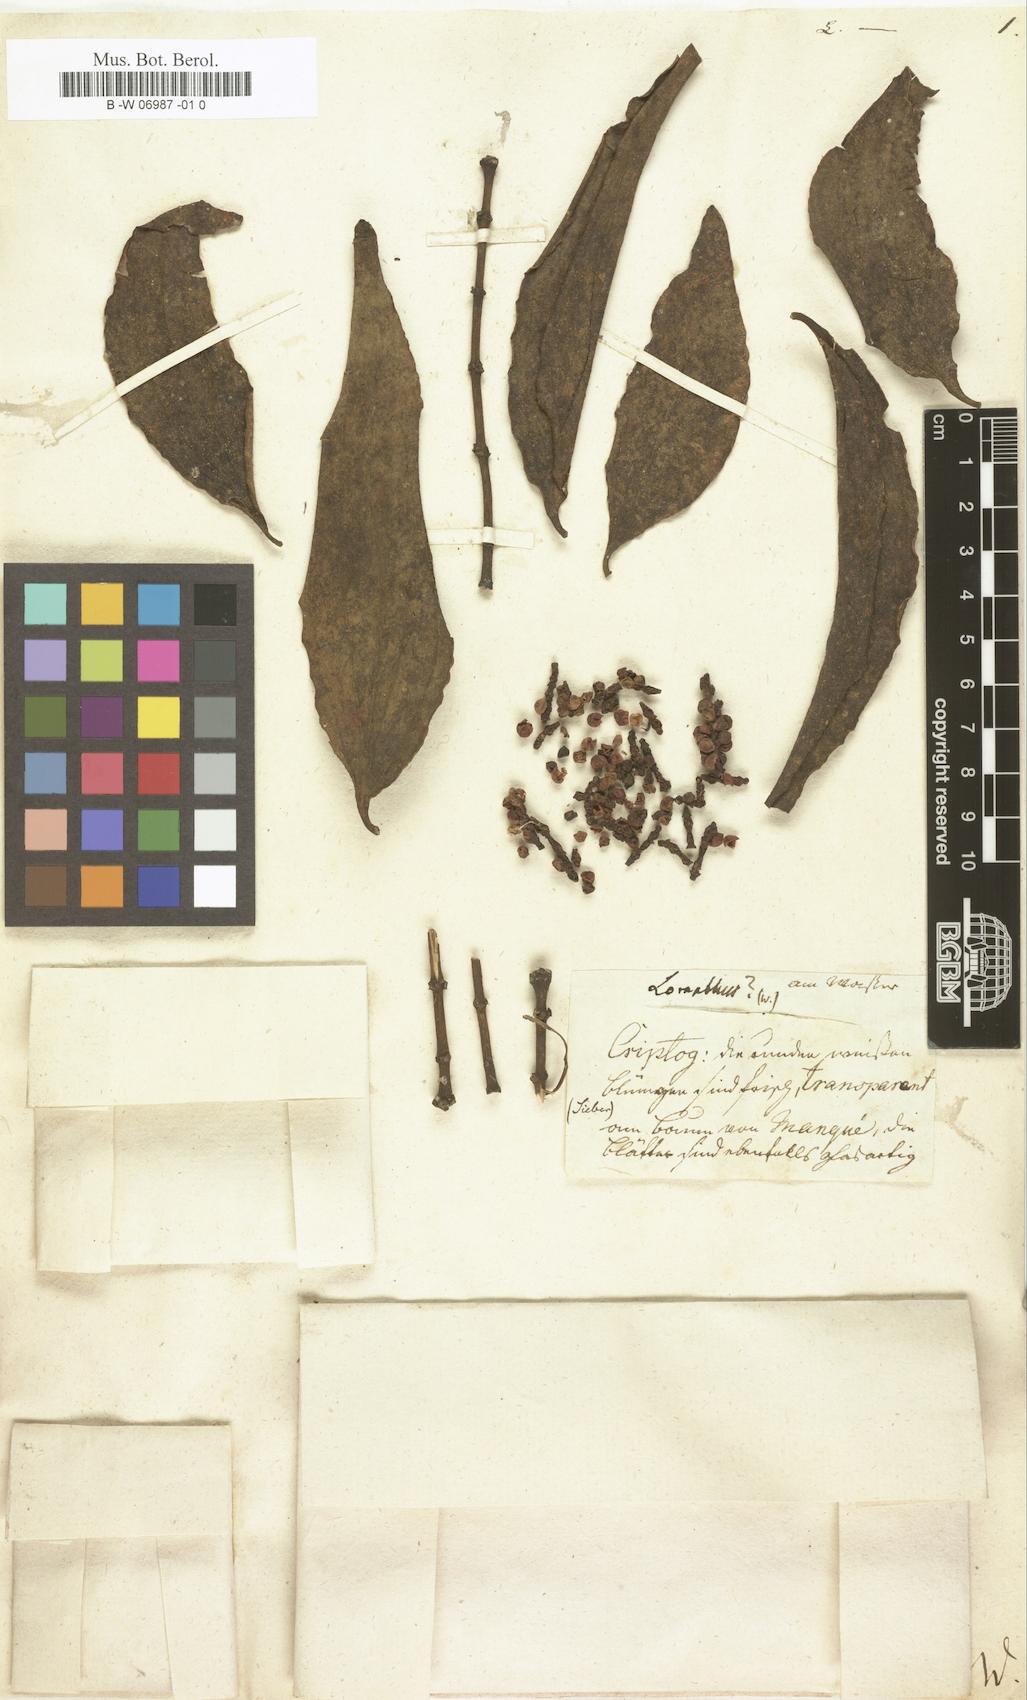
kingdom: Plantae
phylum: Tracheophyta
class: Magnoliopsida
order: Santalales
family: Loranthaceae
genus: Loranthus
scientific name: Loranthus
